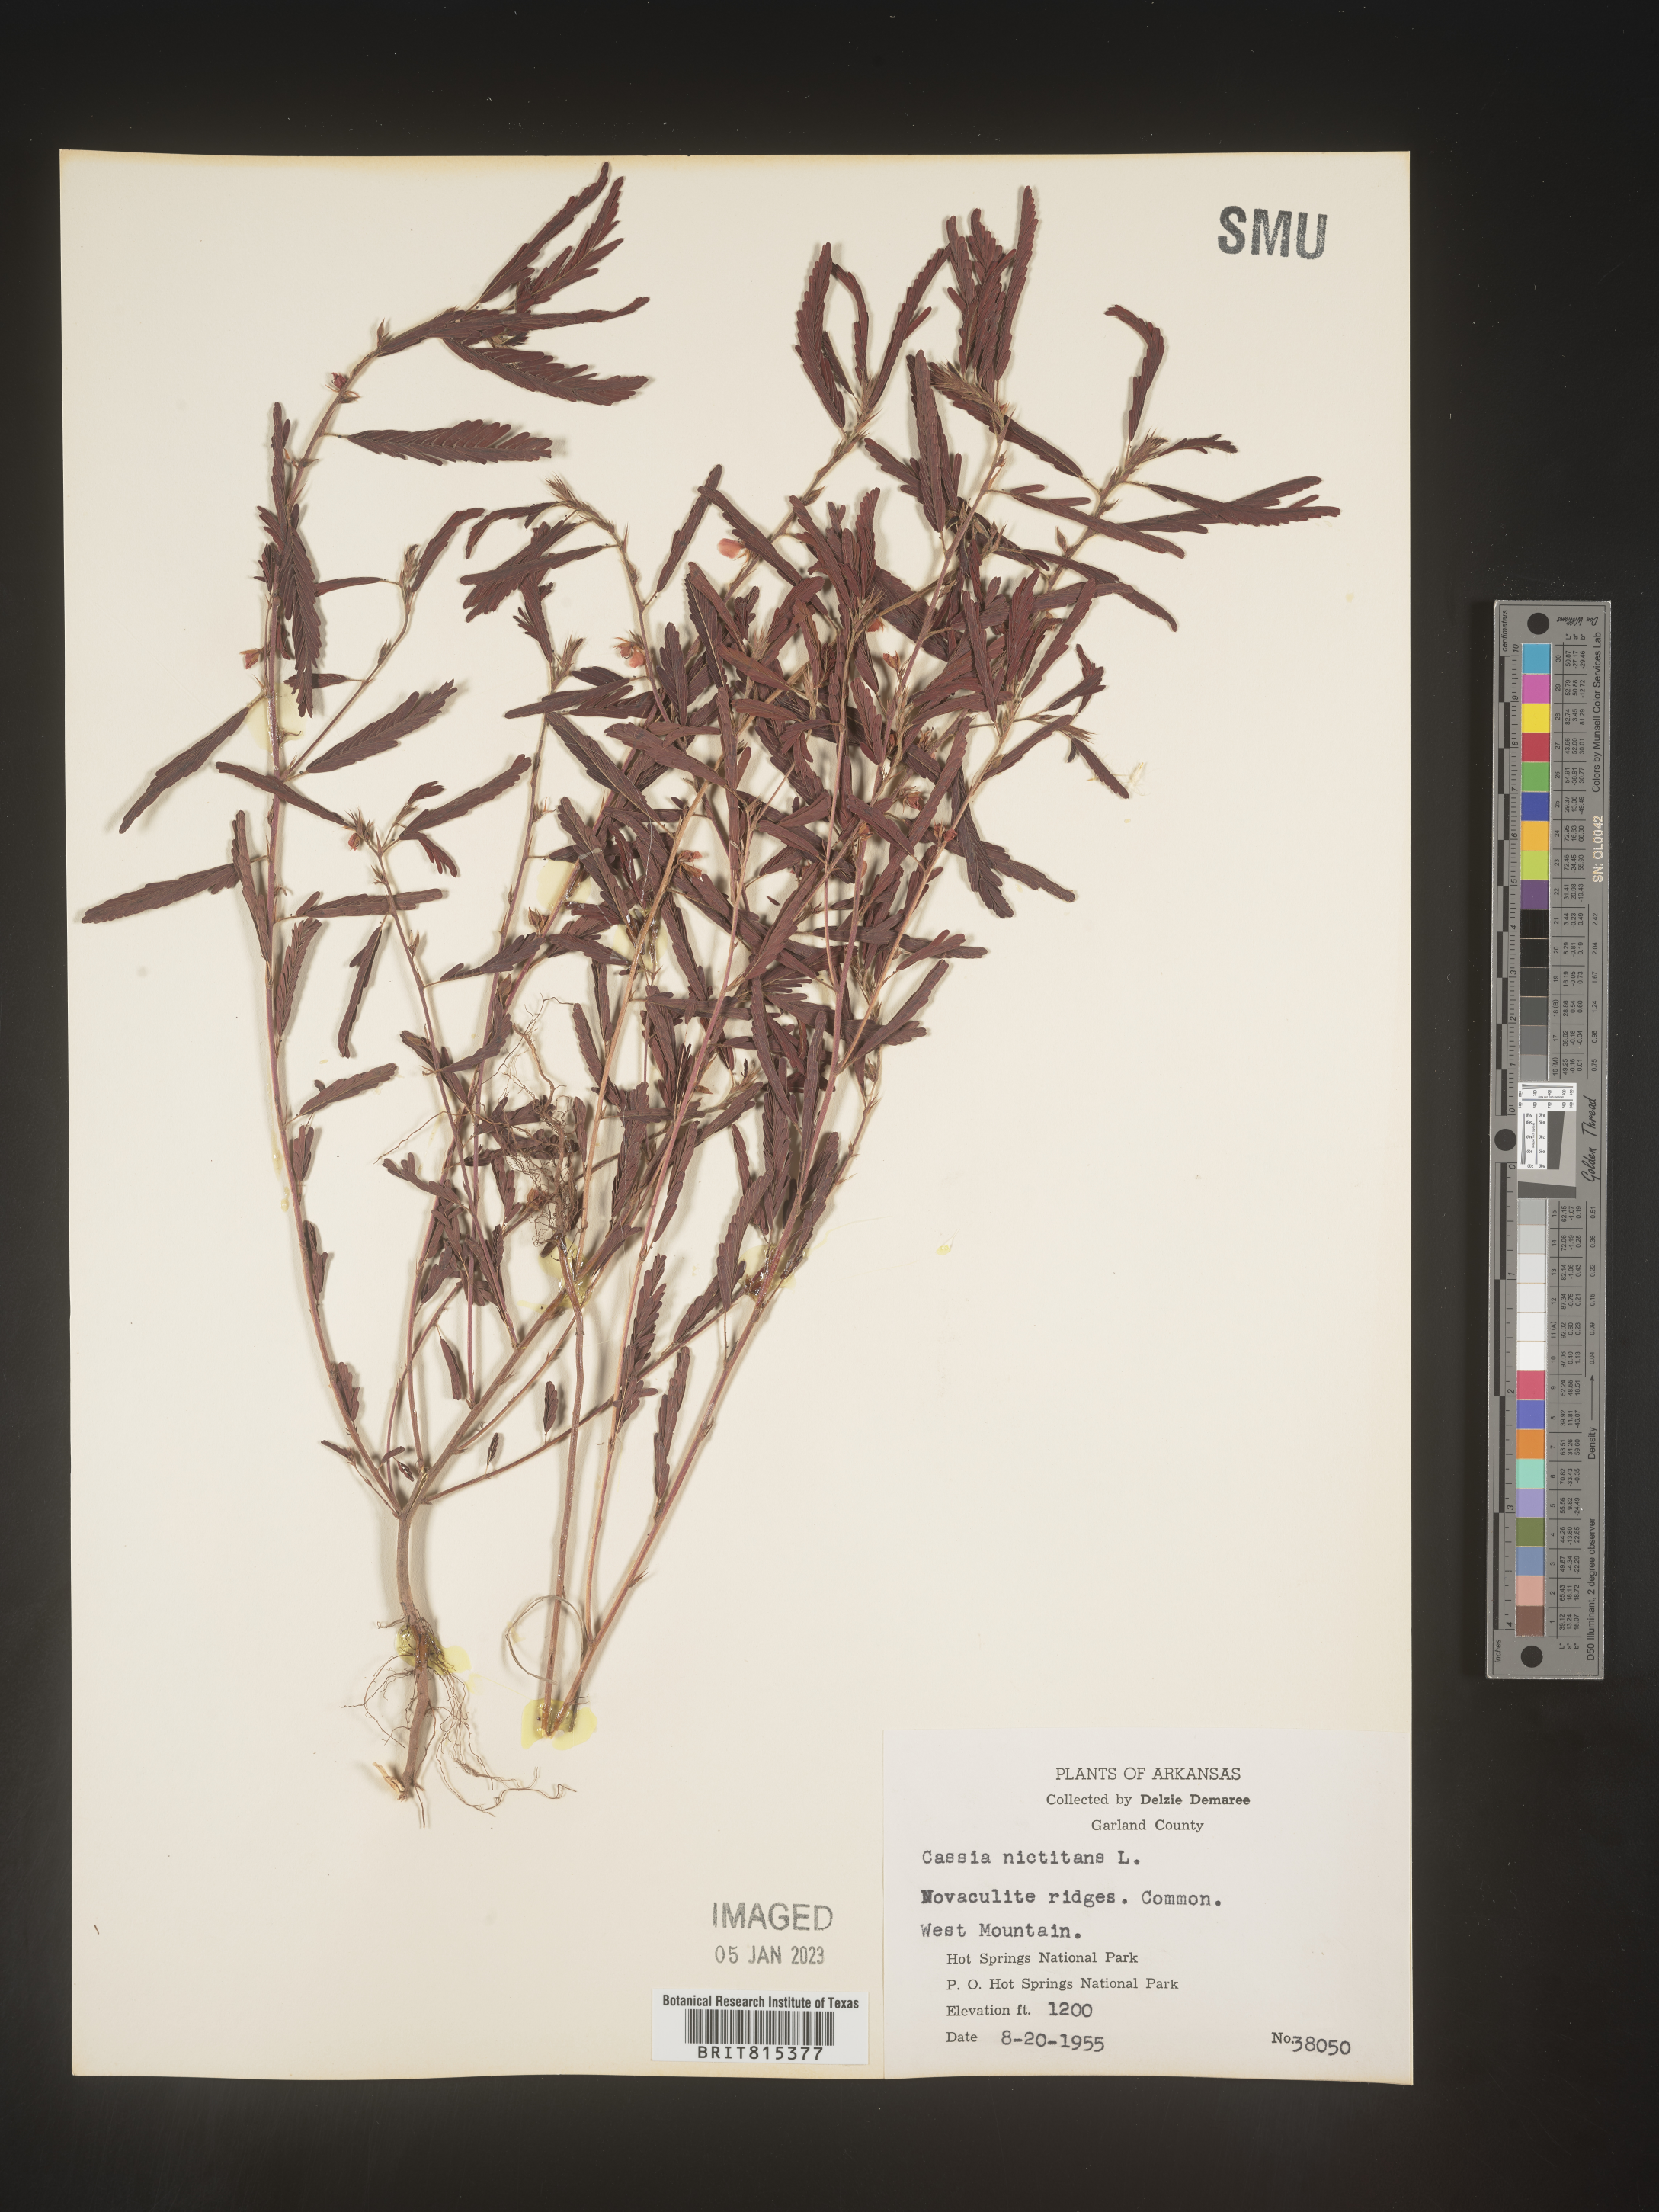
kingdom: Plantae
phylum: Tracheophyta
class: Magnoliopsida
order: Fabales
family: Fabaceae
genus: Chamaecrista
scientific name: Chamaecrista nictitans
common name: Sensitive cassia
